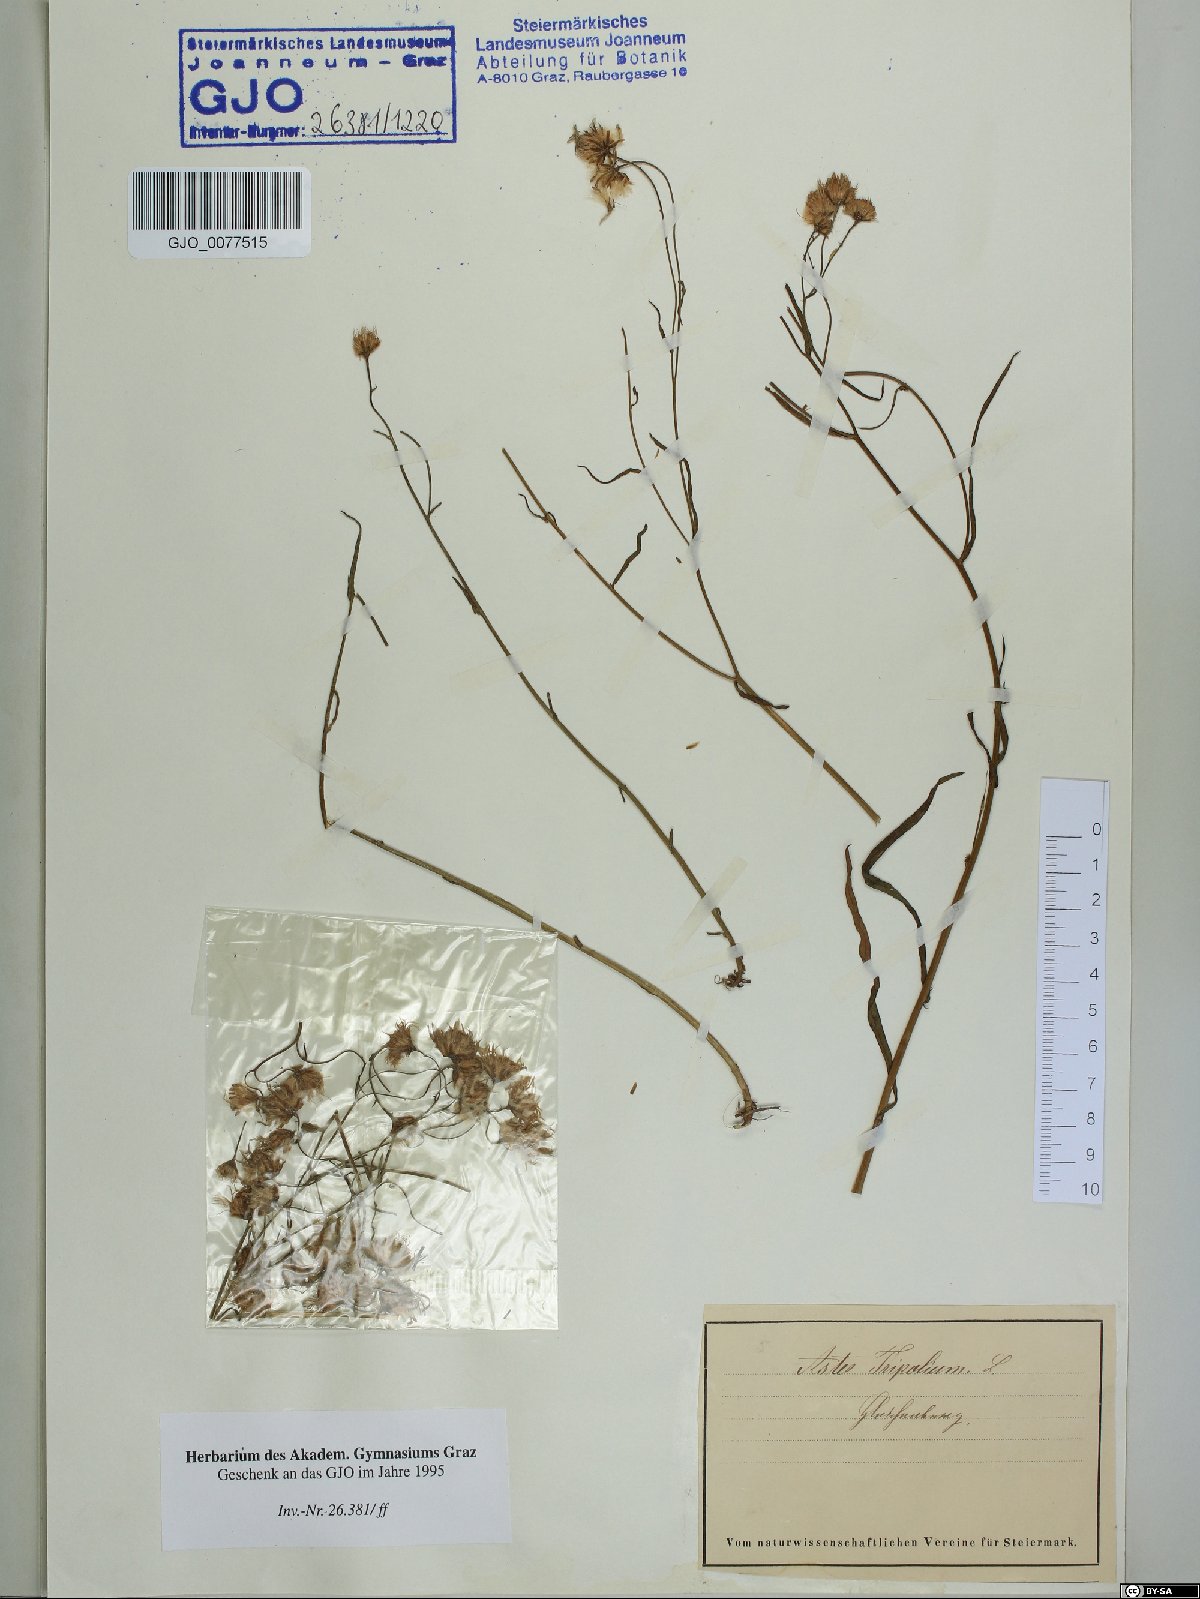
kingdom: Plantae
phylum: Tracheophyta
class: Magnoliopsida
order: Asterales
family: Asteraceae
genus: Tripolium
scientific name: Tripolium pannonicum
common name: Sea aster
